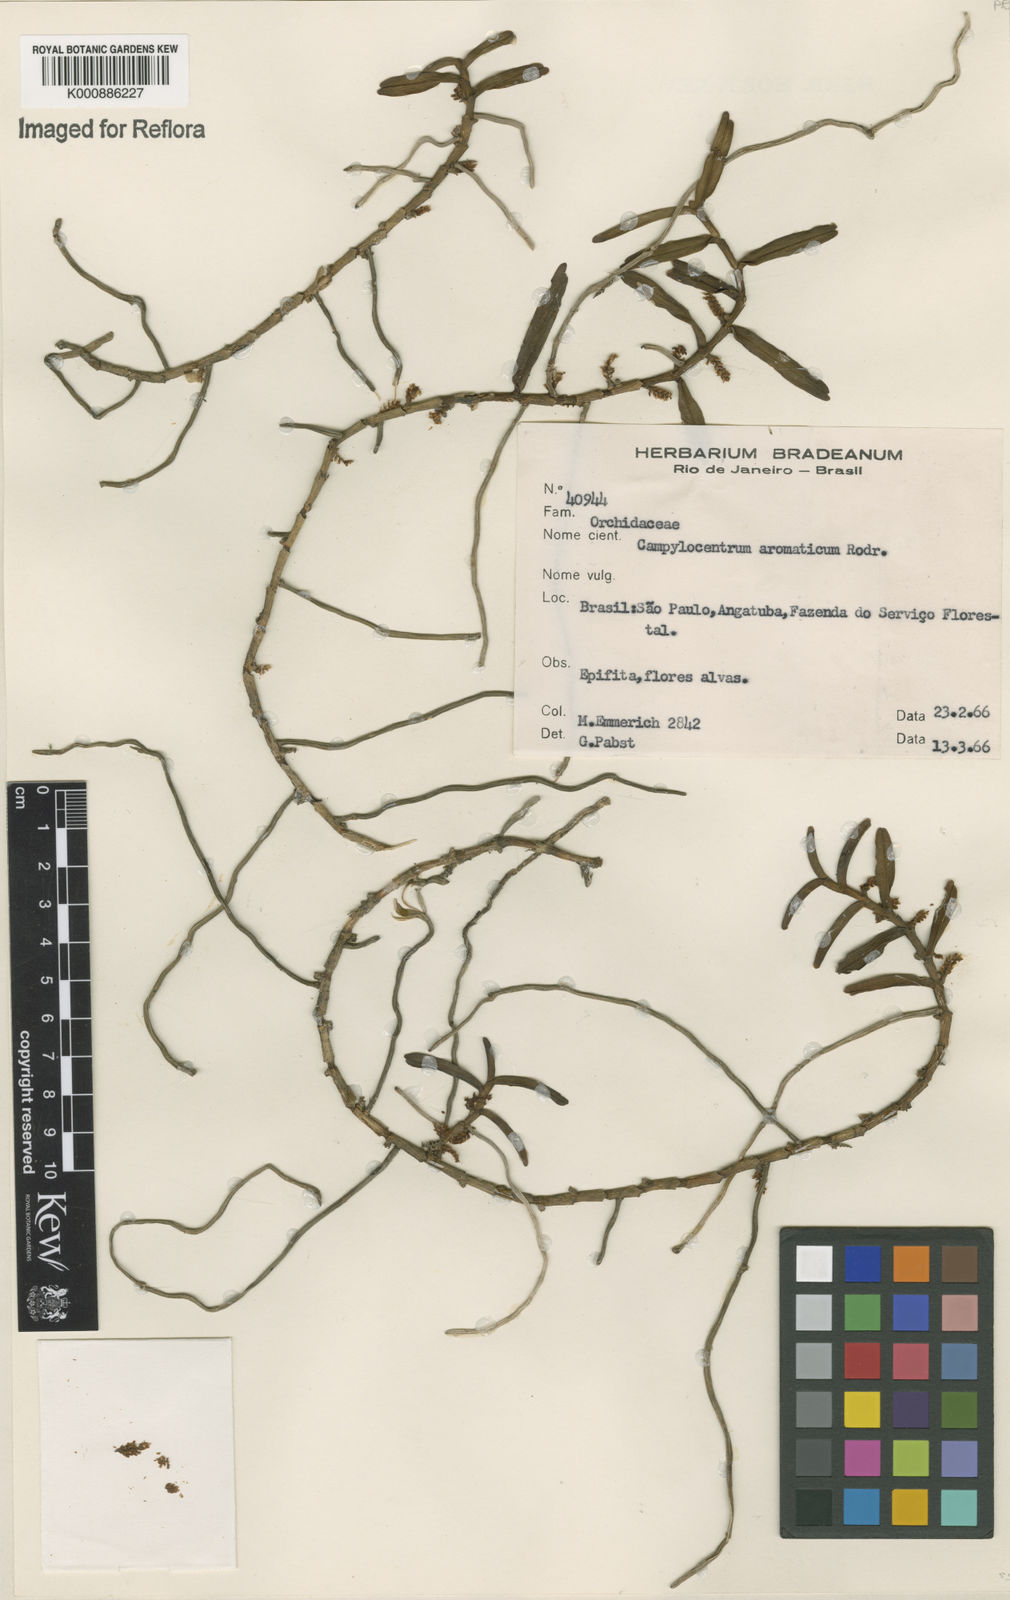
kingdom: Plantae
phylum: Tracheophyta
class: Liliopsida
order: Asparagales
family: Orchidaceae
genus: Campylocentrum
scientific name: Campylocentrum aromaticum
